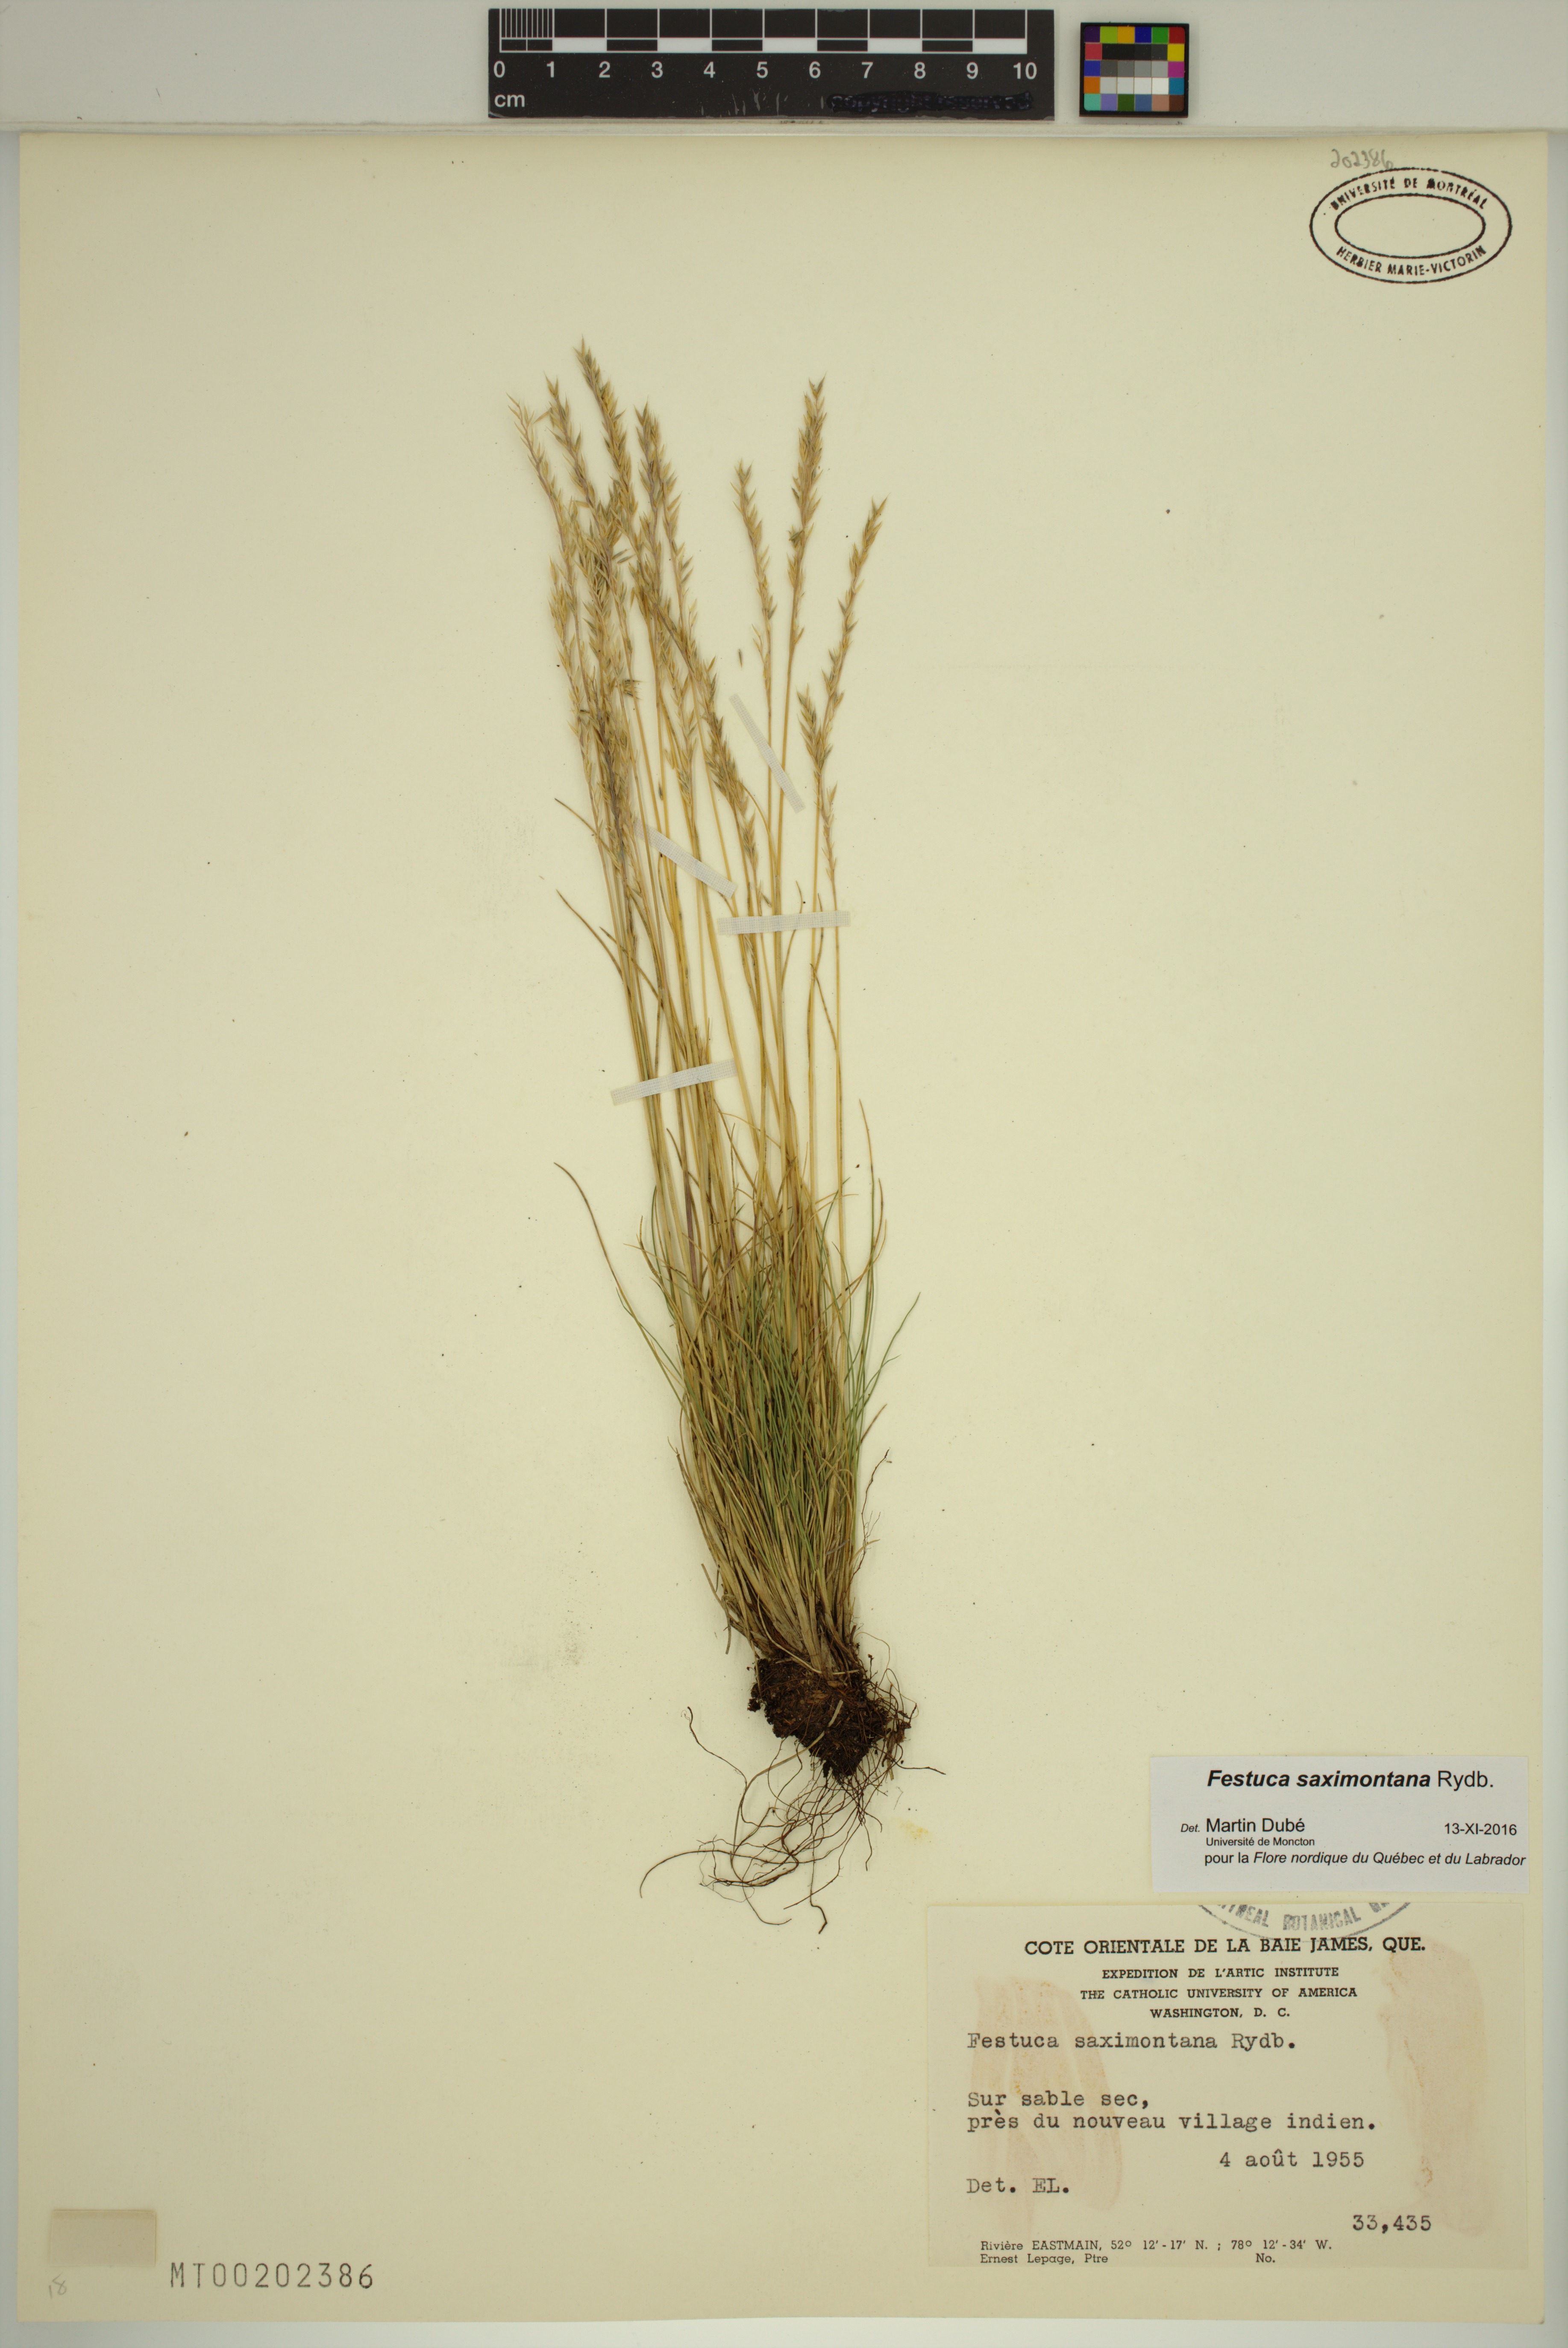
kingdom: Plantae
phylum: Tracheophyta
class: Liliopsida
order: Poales
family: Poaceae
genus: Festuca
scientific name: Festuca saximontana
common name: Mountain fescue
